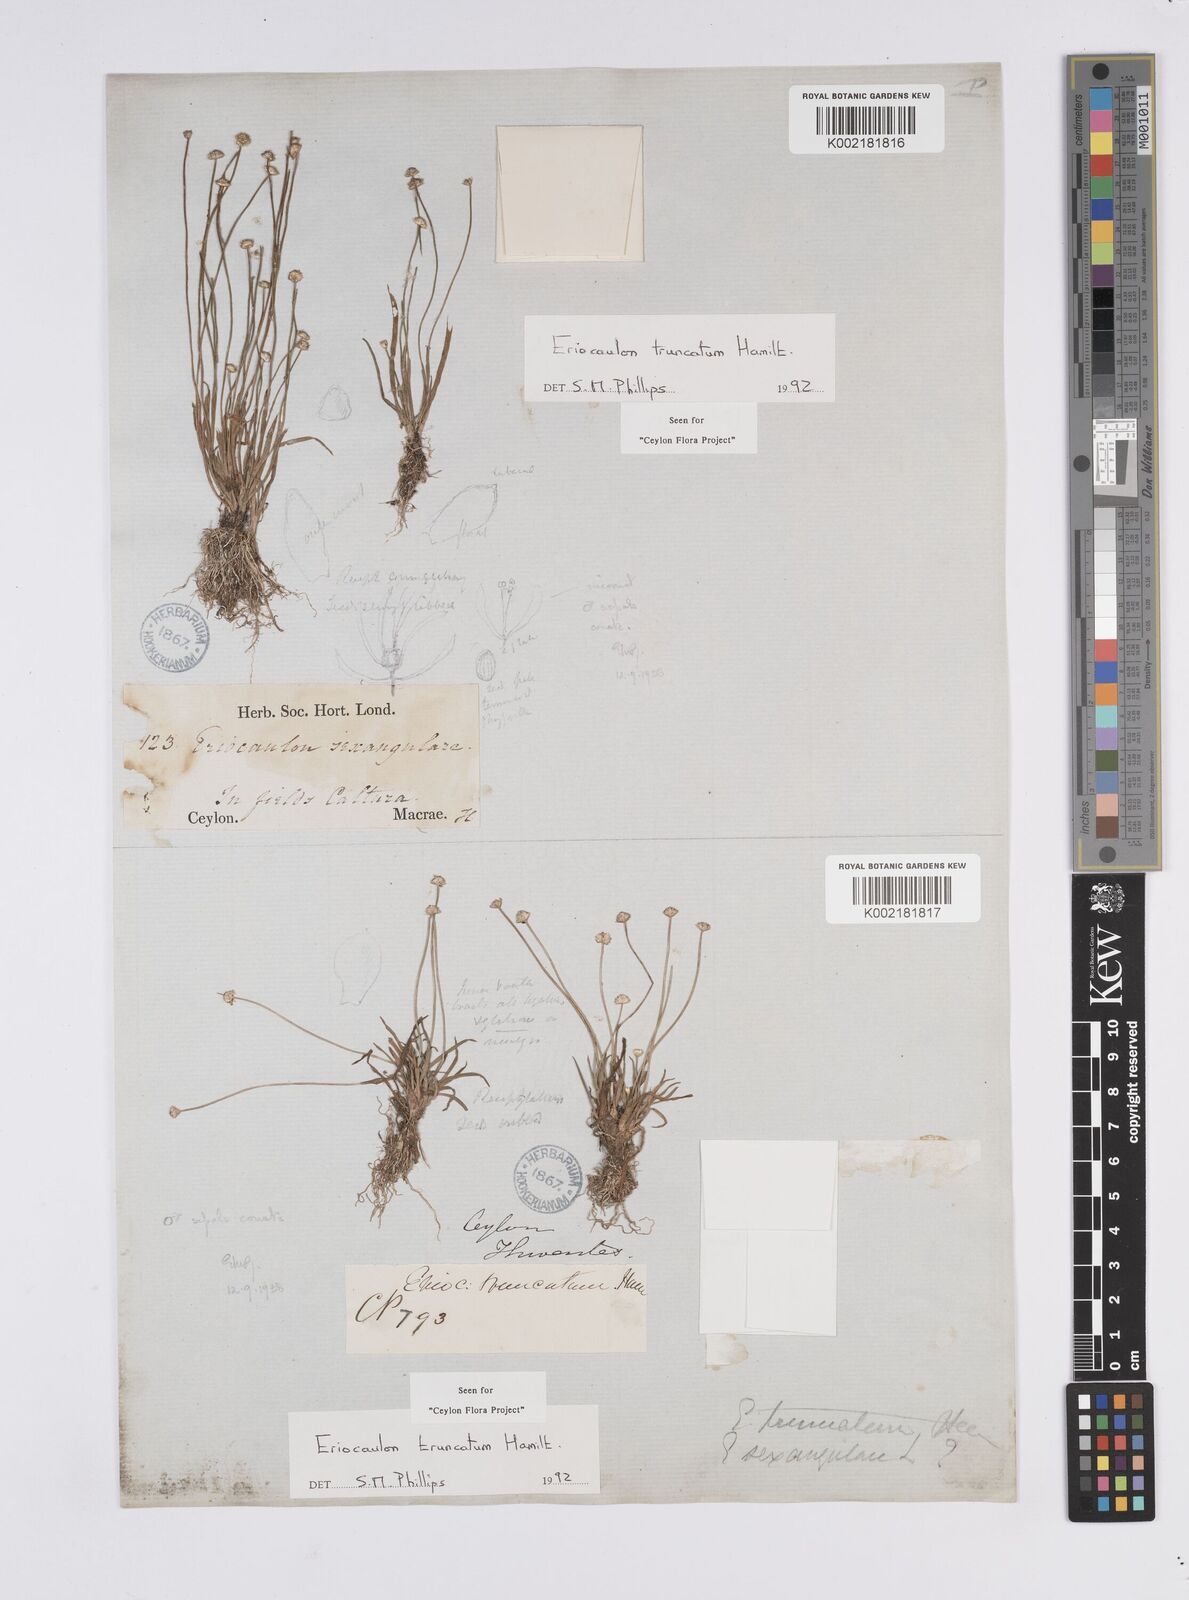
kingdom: Plantae
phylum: Tracheophyta
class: Liliopsida
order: Poales
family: Eriocaulaceae
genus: Eriocaulon
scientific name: Eriocaulon truncatum
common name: Short pipe-wort
